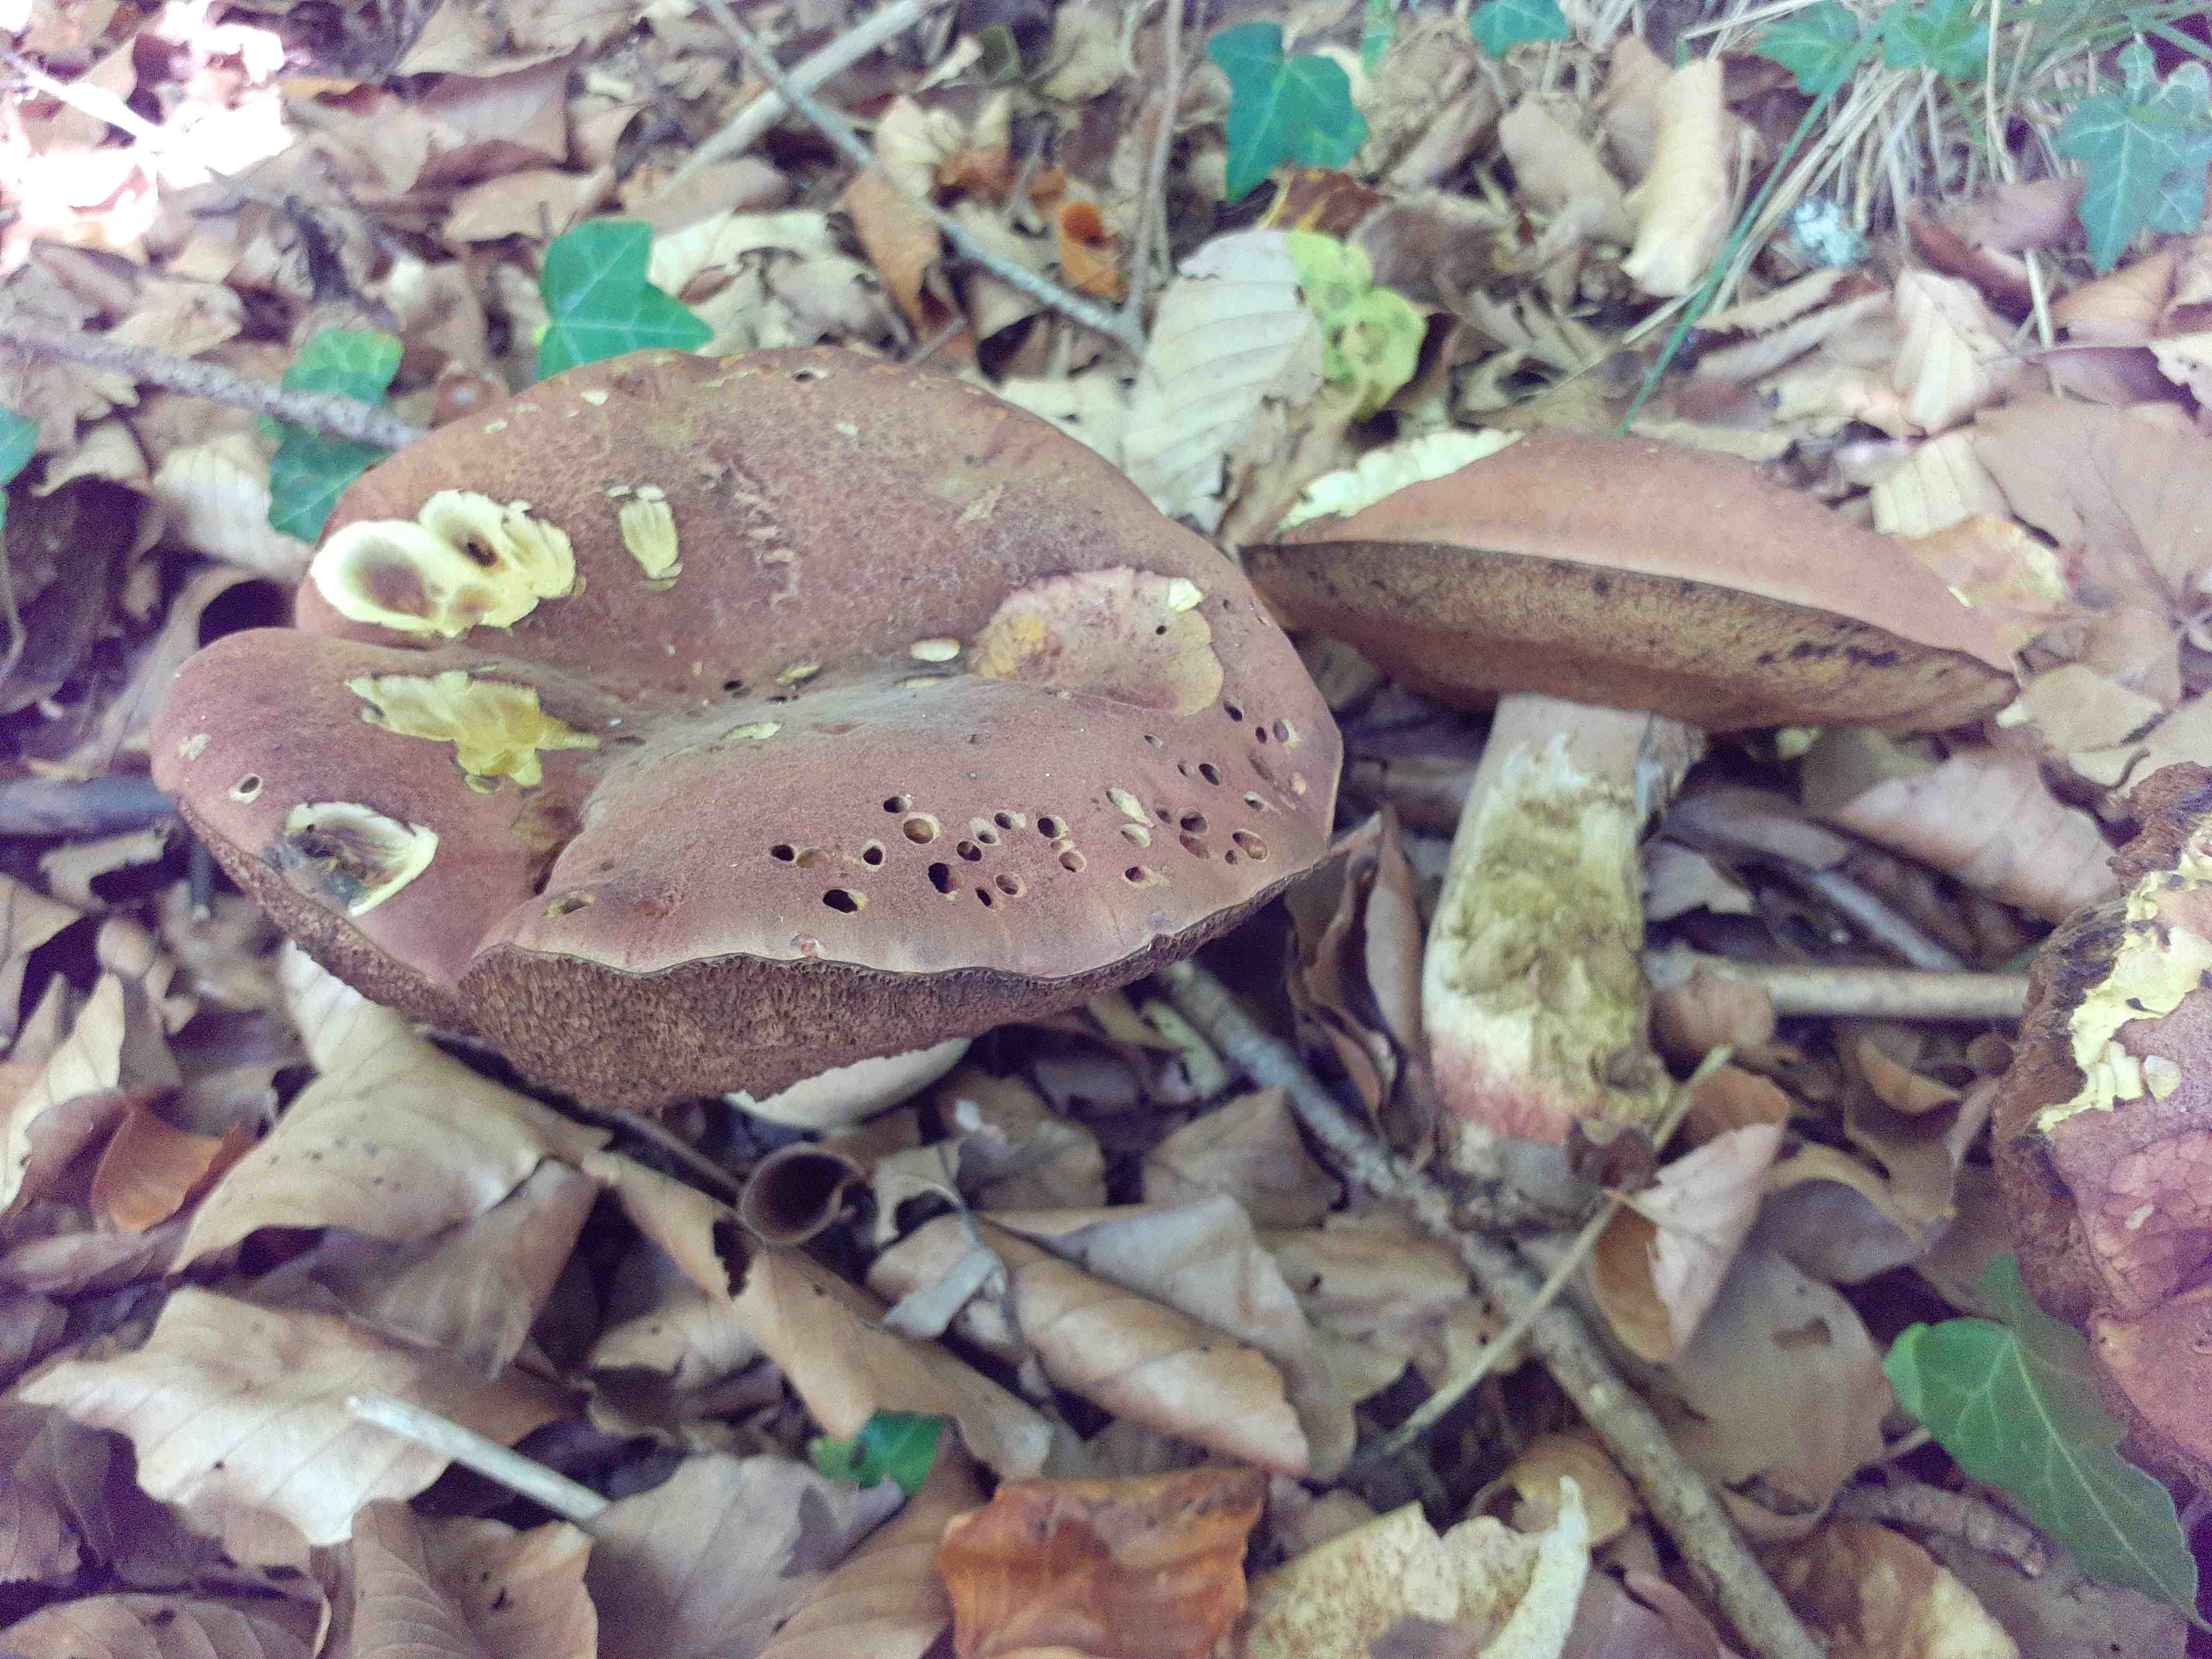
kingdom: Fungi
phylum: Basidiomycota
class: Agaricomycetes
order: Boletales
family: Boletaceae
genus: Suillellus
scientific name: Suillellus queletii
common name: glatstokket indigorørhat
